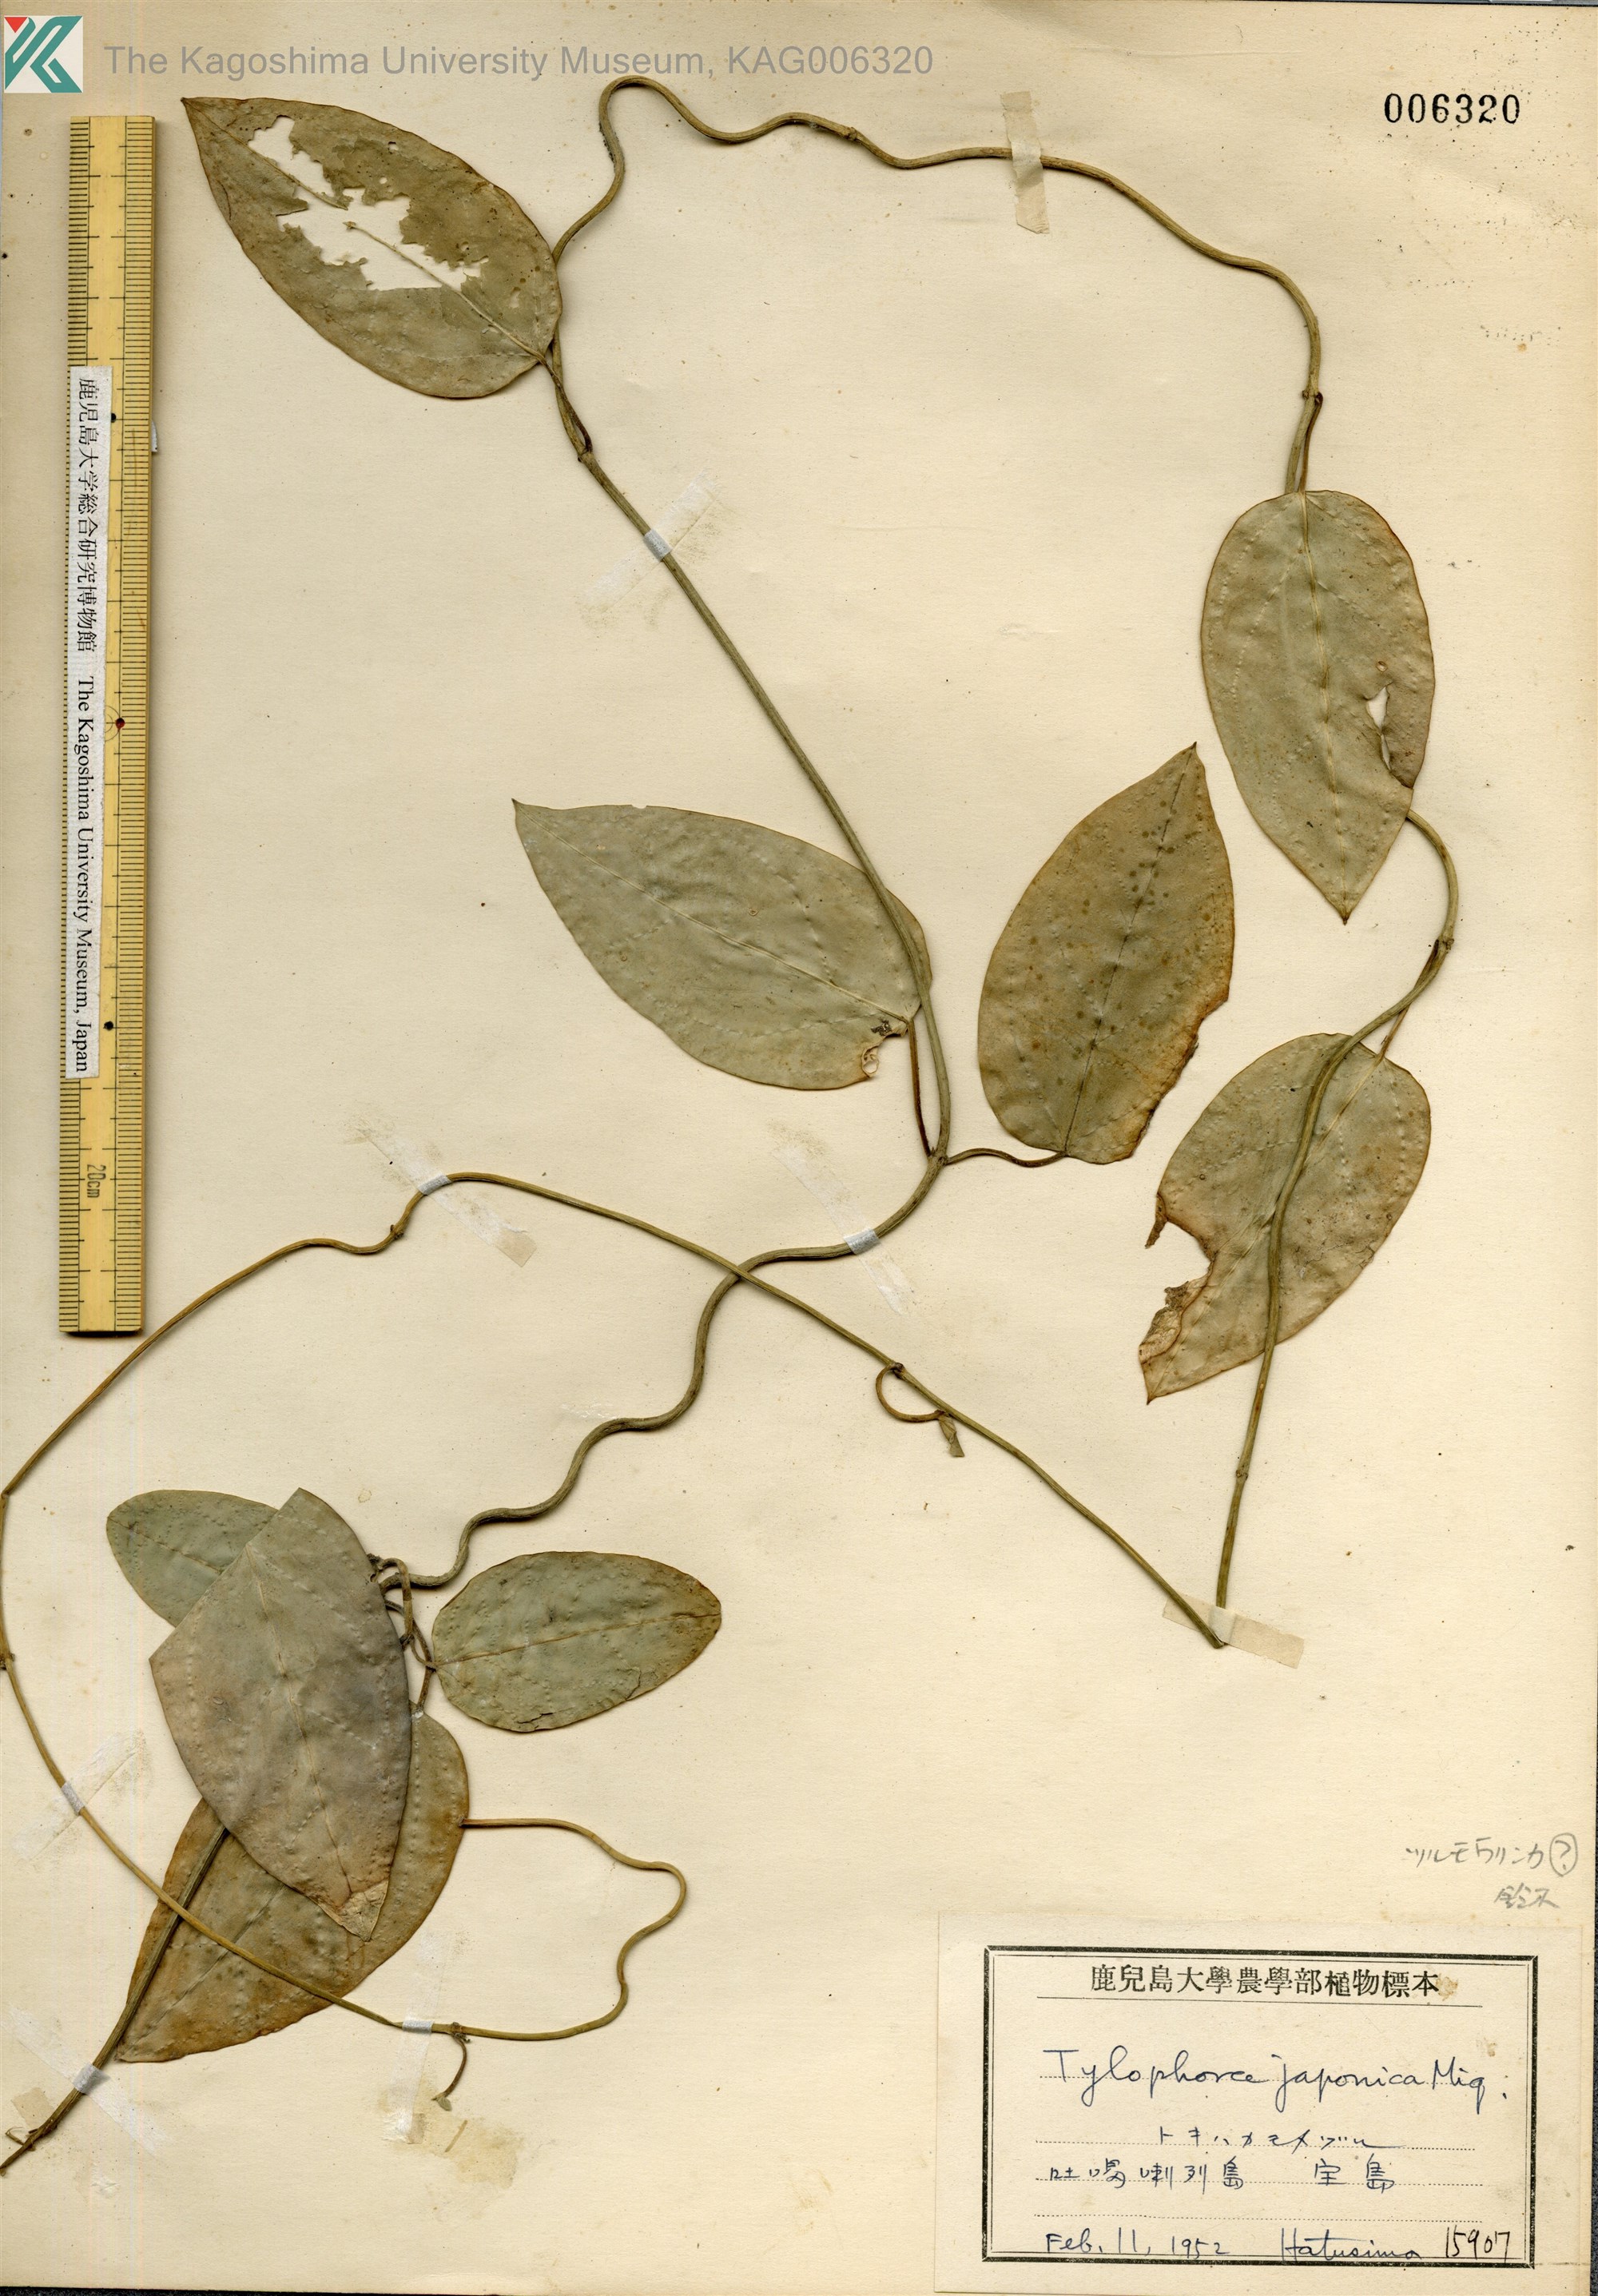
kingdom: Plantae
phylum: Tracheophyta
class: Magnoliopsida
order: Gentianales
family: Apocynaceae
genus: Vincetoxicum
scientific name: Vincetoxicum sieboldii
